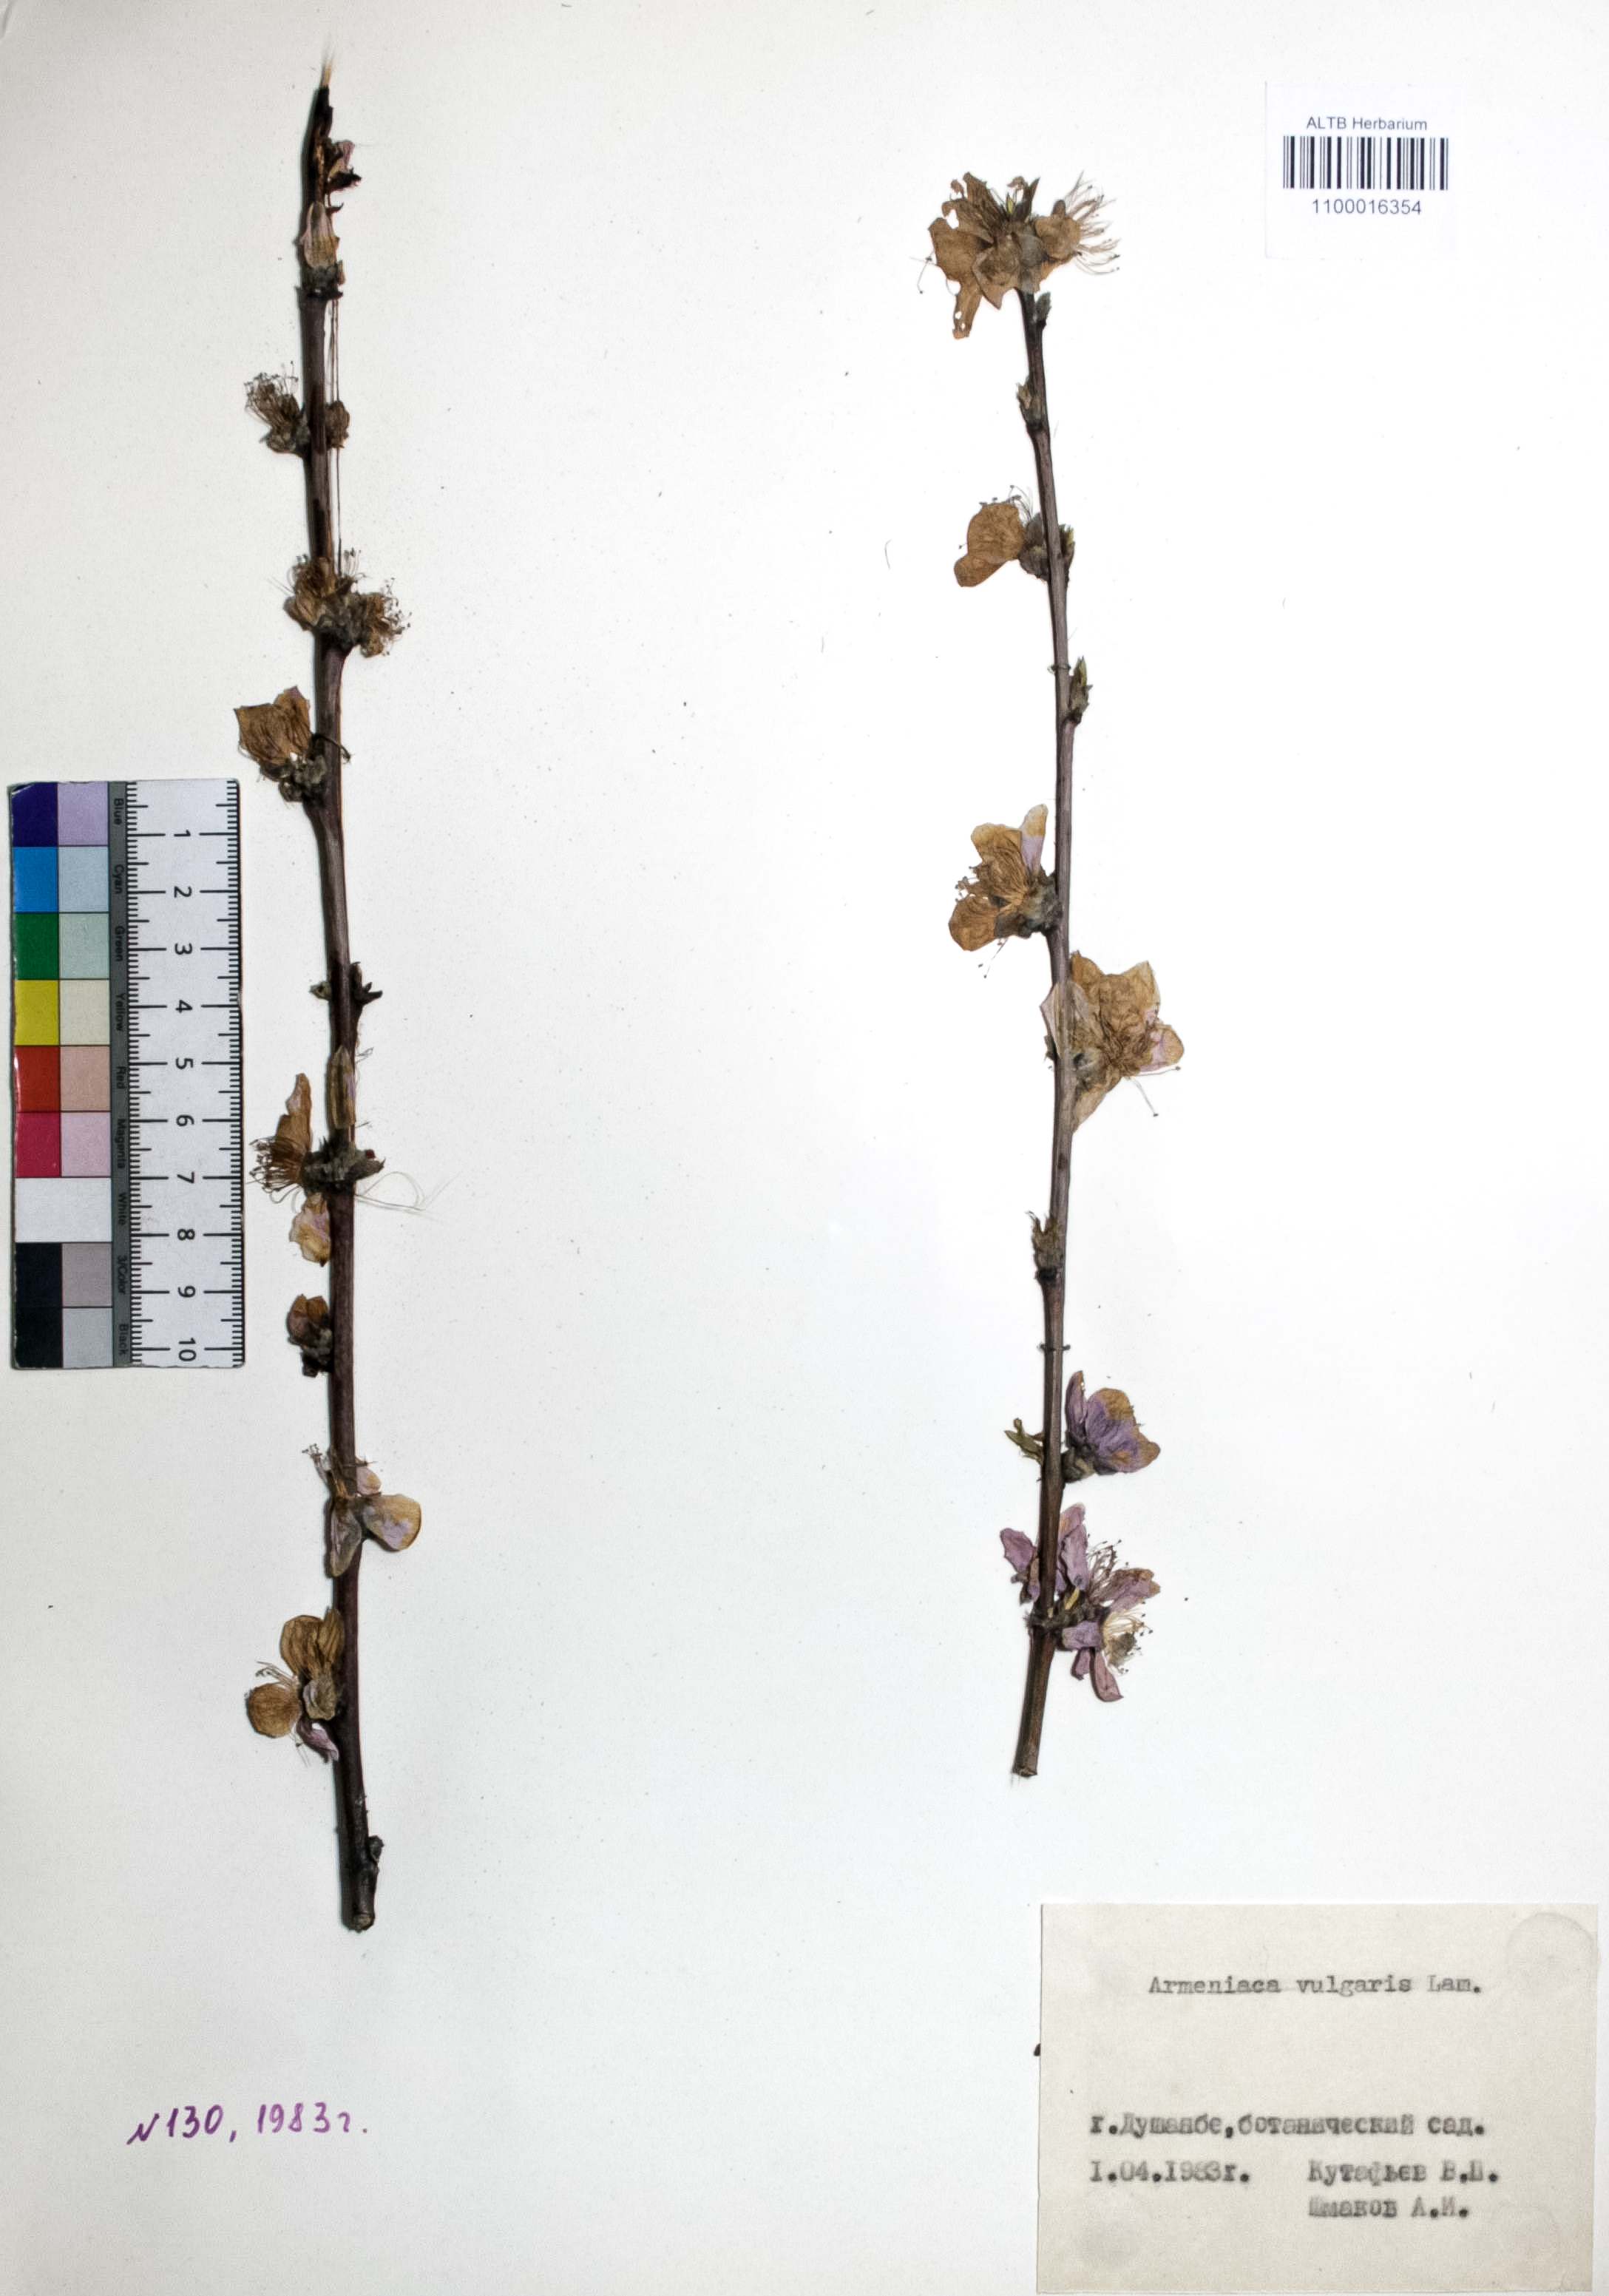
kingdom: Plantae
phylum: Tracheophyta
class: Magnoliopsida
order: Rosales
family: Rosaceae
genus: Prunus
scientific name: Prunus armeniaca
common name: Apricot
